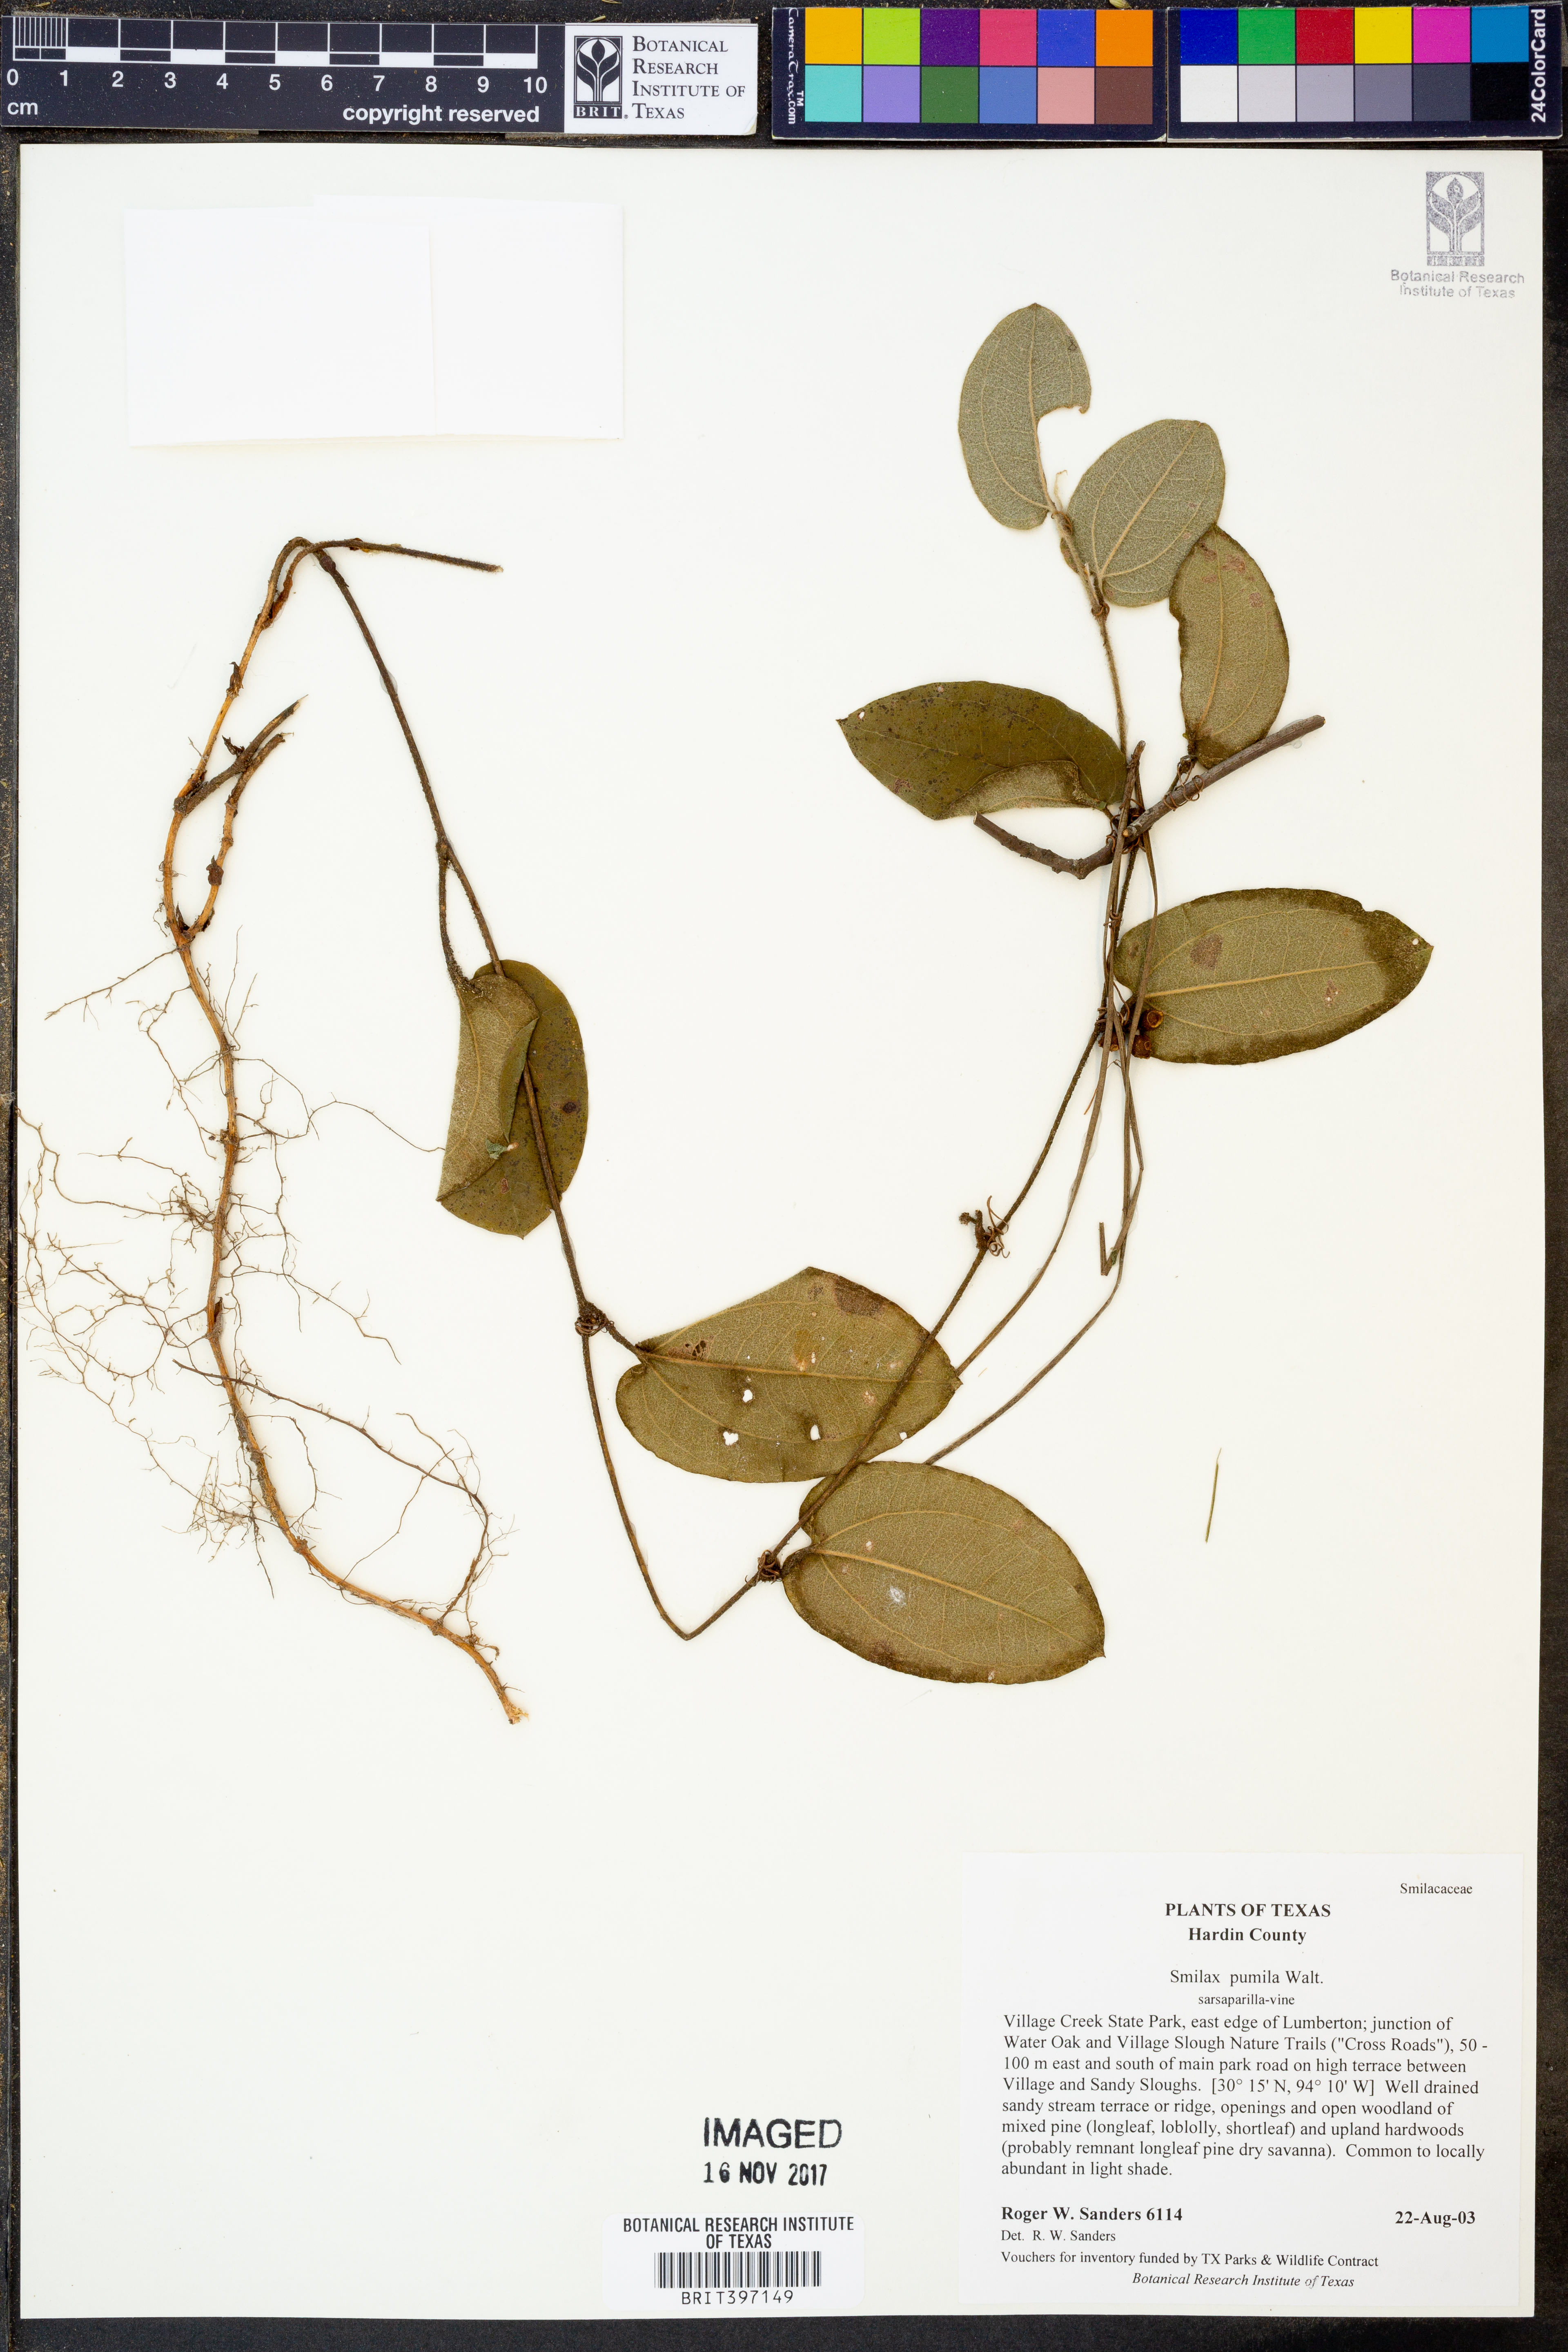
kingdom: Plantae
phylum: Tracheophyta
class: Liliopsida
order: Liliales
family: Smilacaceae
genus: Smilax
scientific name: Smilax pumila
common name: Sarsaparilla-vine
